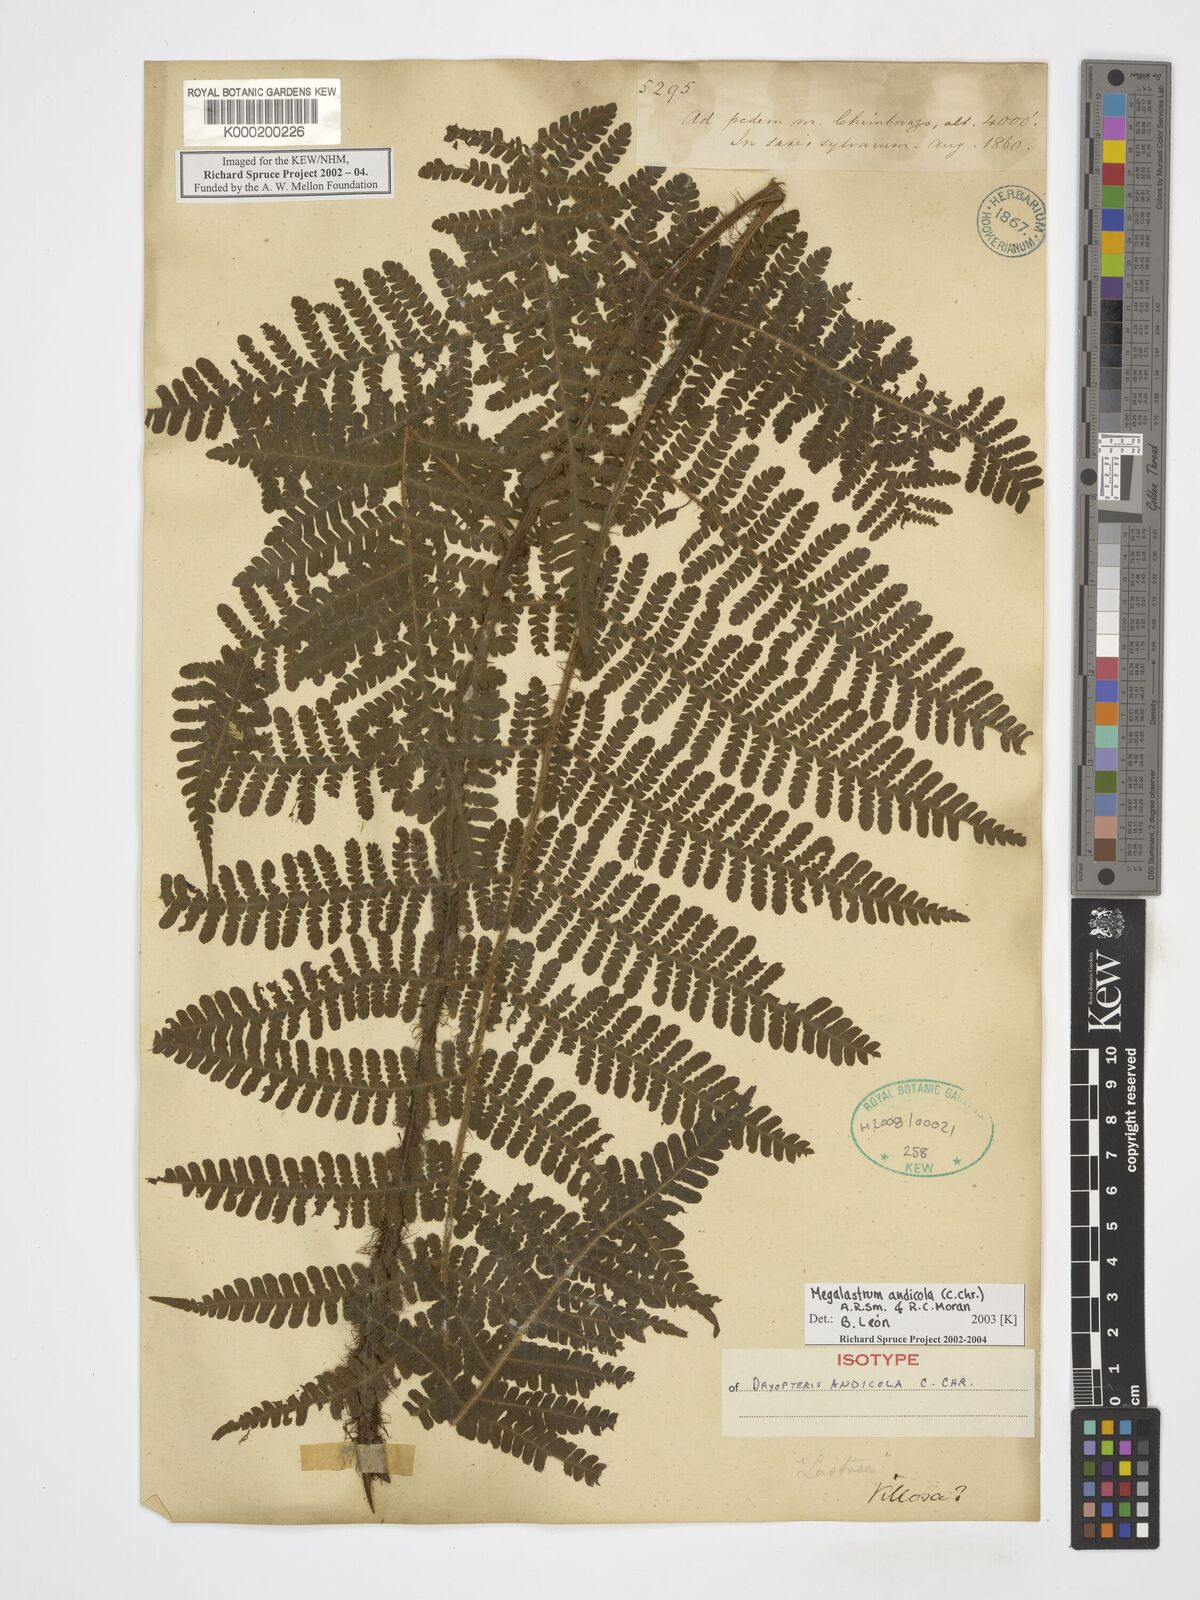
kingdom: Plantae
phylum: Tracheophyta
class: Polypodiopsida
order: Polypodiales
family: Dryopteridaceae
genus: Megalastrum
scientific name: Megalastrum andicola
